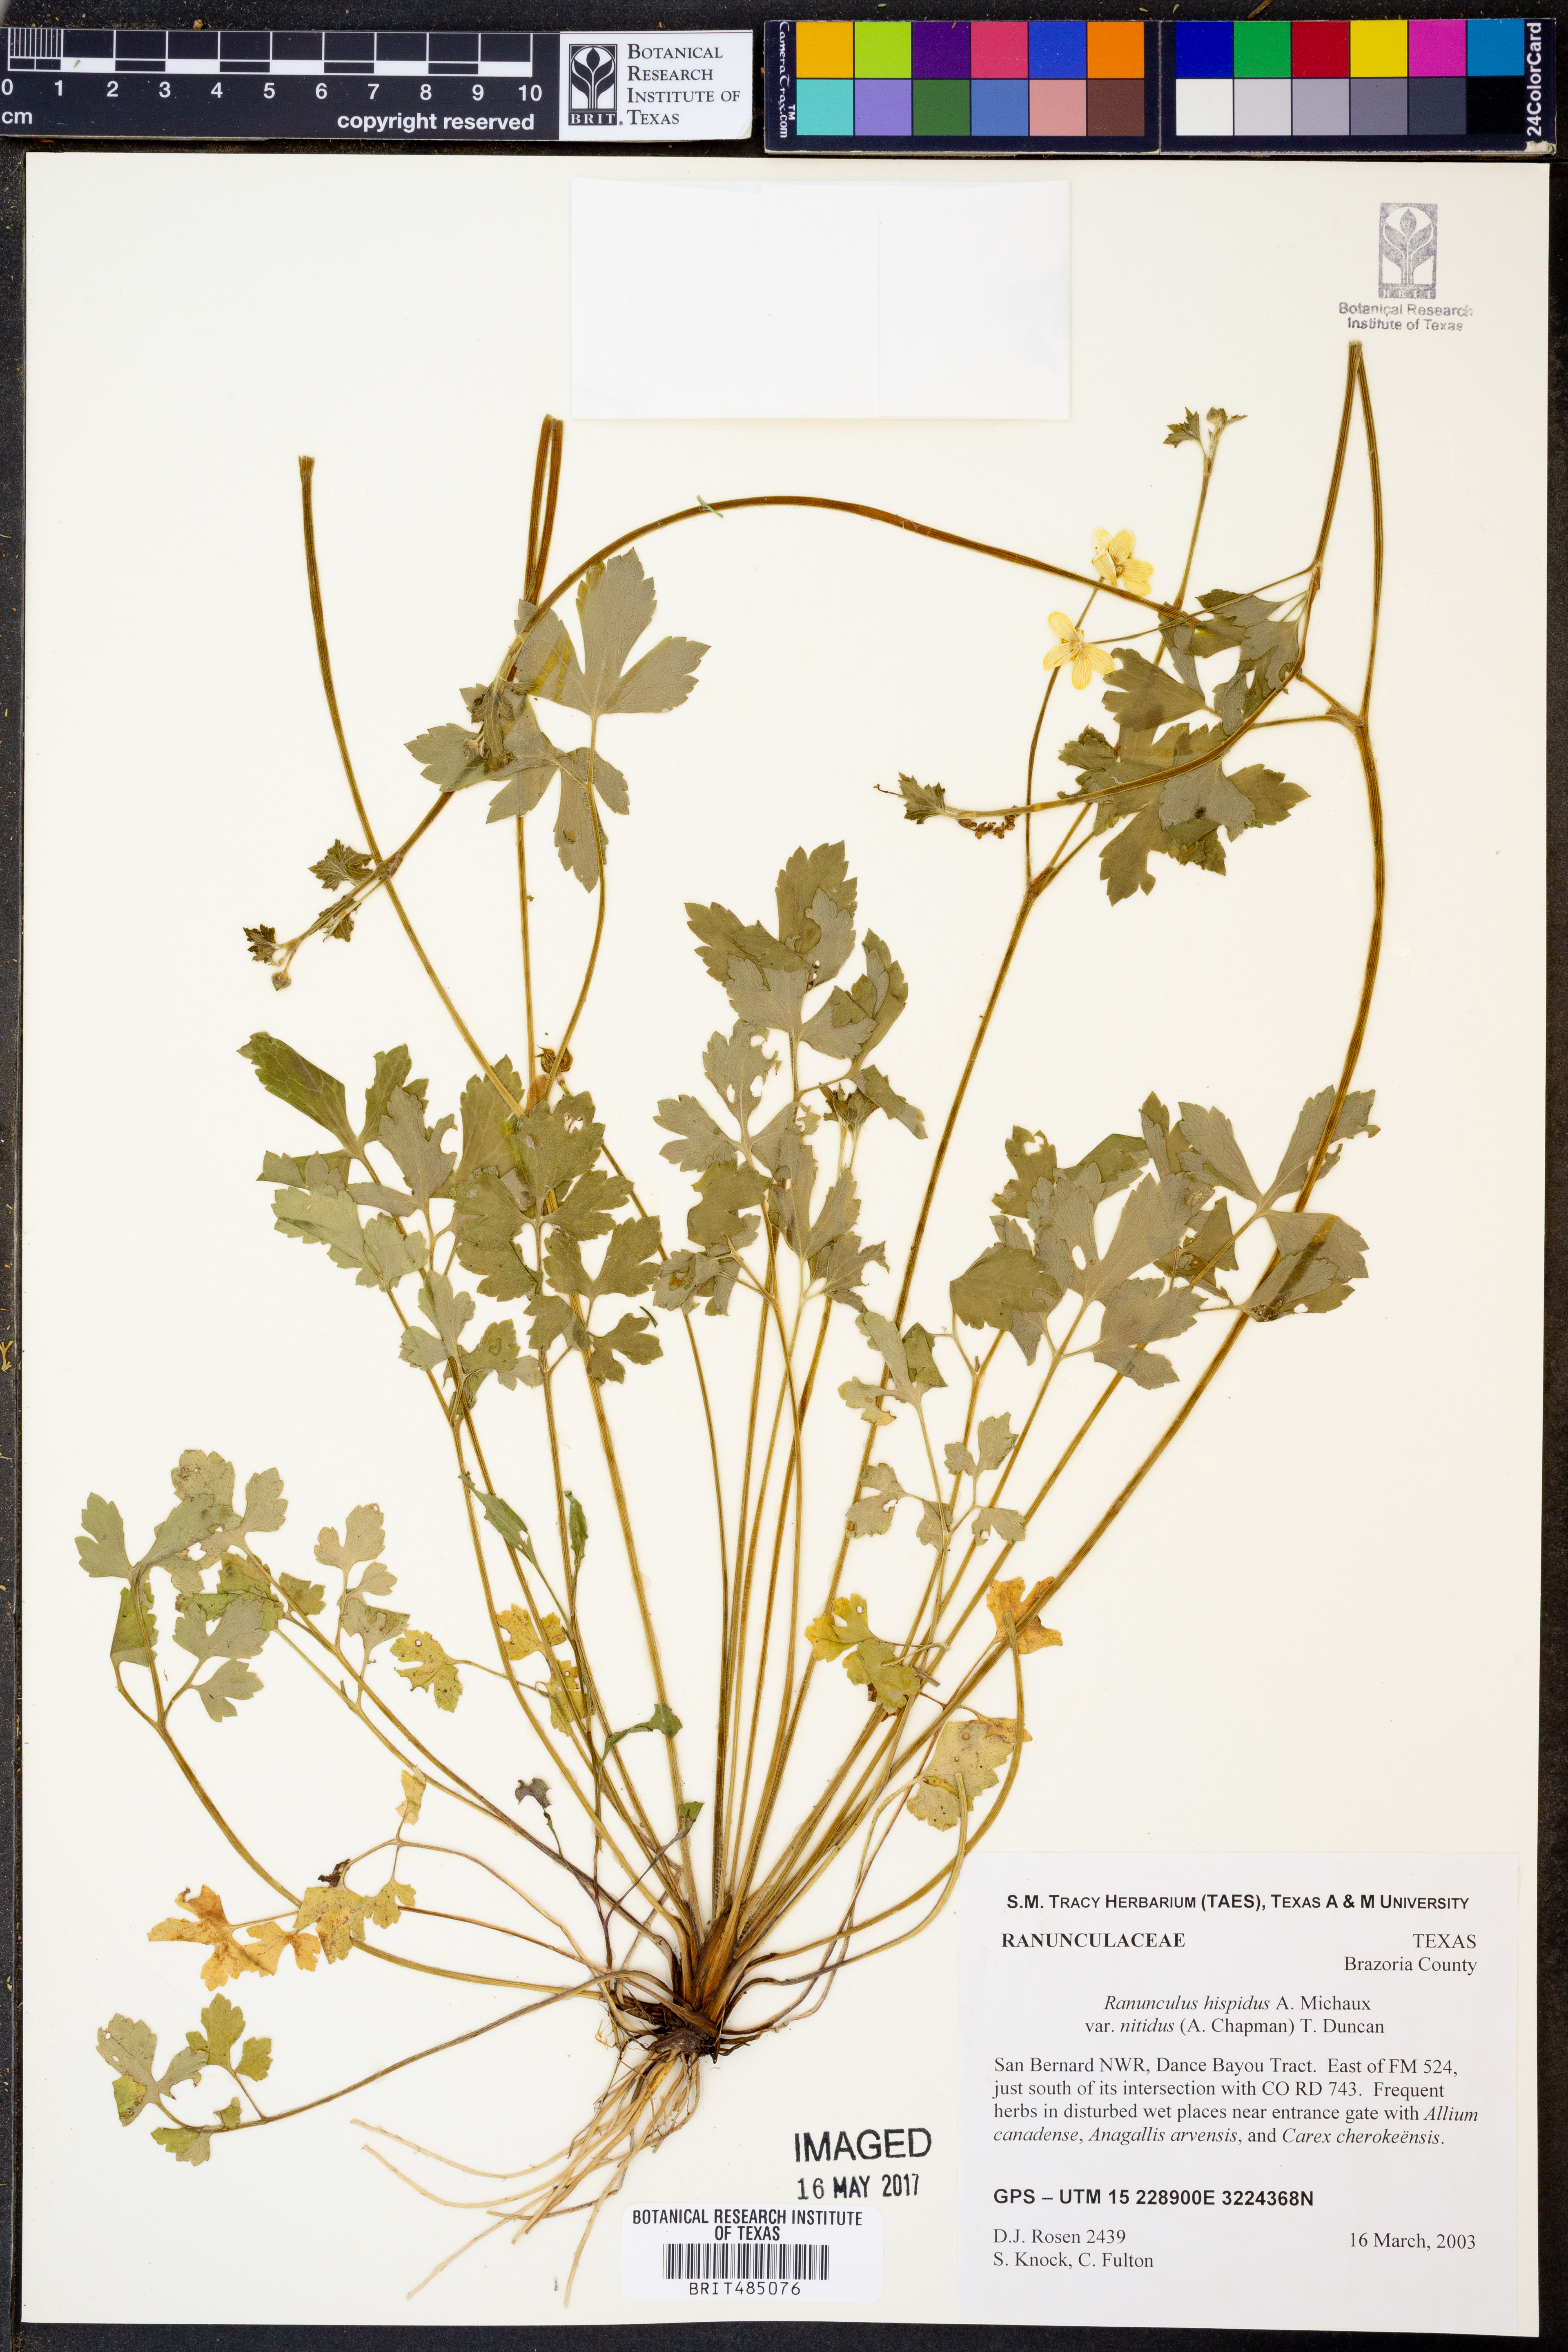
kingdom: Plantae
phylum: Tracheophyta
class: Magnoliopsida
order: Ranunculales
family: Ranunculaceae
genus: Ranunculus
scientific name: Ranunculus hispidus
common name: Bristly buttercup
